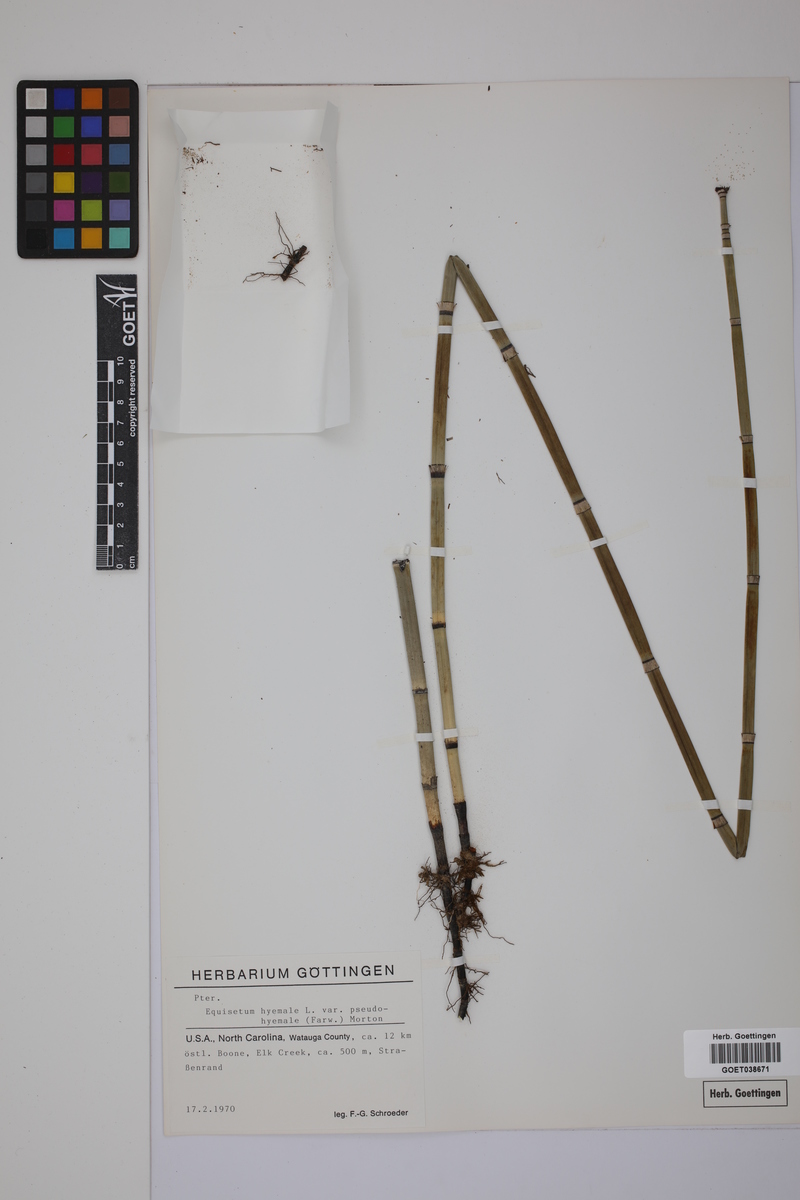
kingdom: Plantae
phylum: Tracheophyta
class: Polypodiopsida
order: Equisetales
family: Equisetaceae
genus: Equisetum
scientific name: Equisetum hyemale
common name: Rough horsetail
